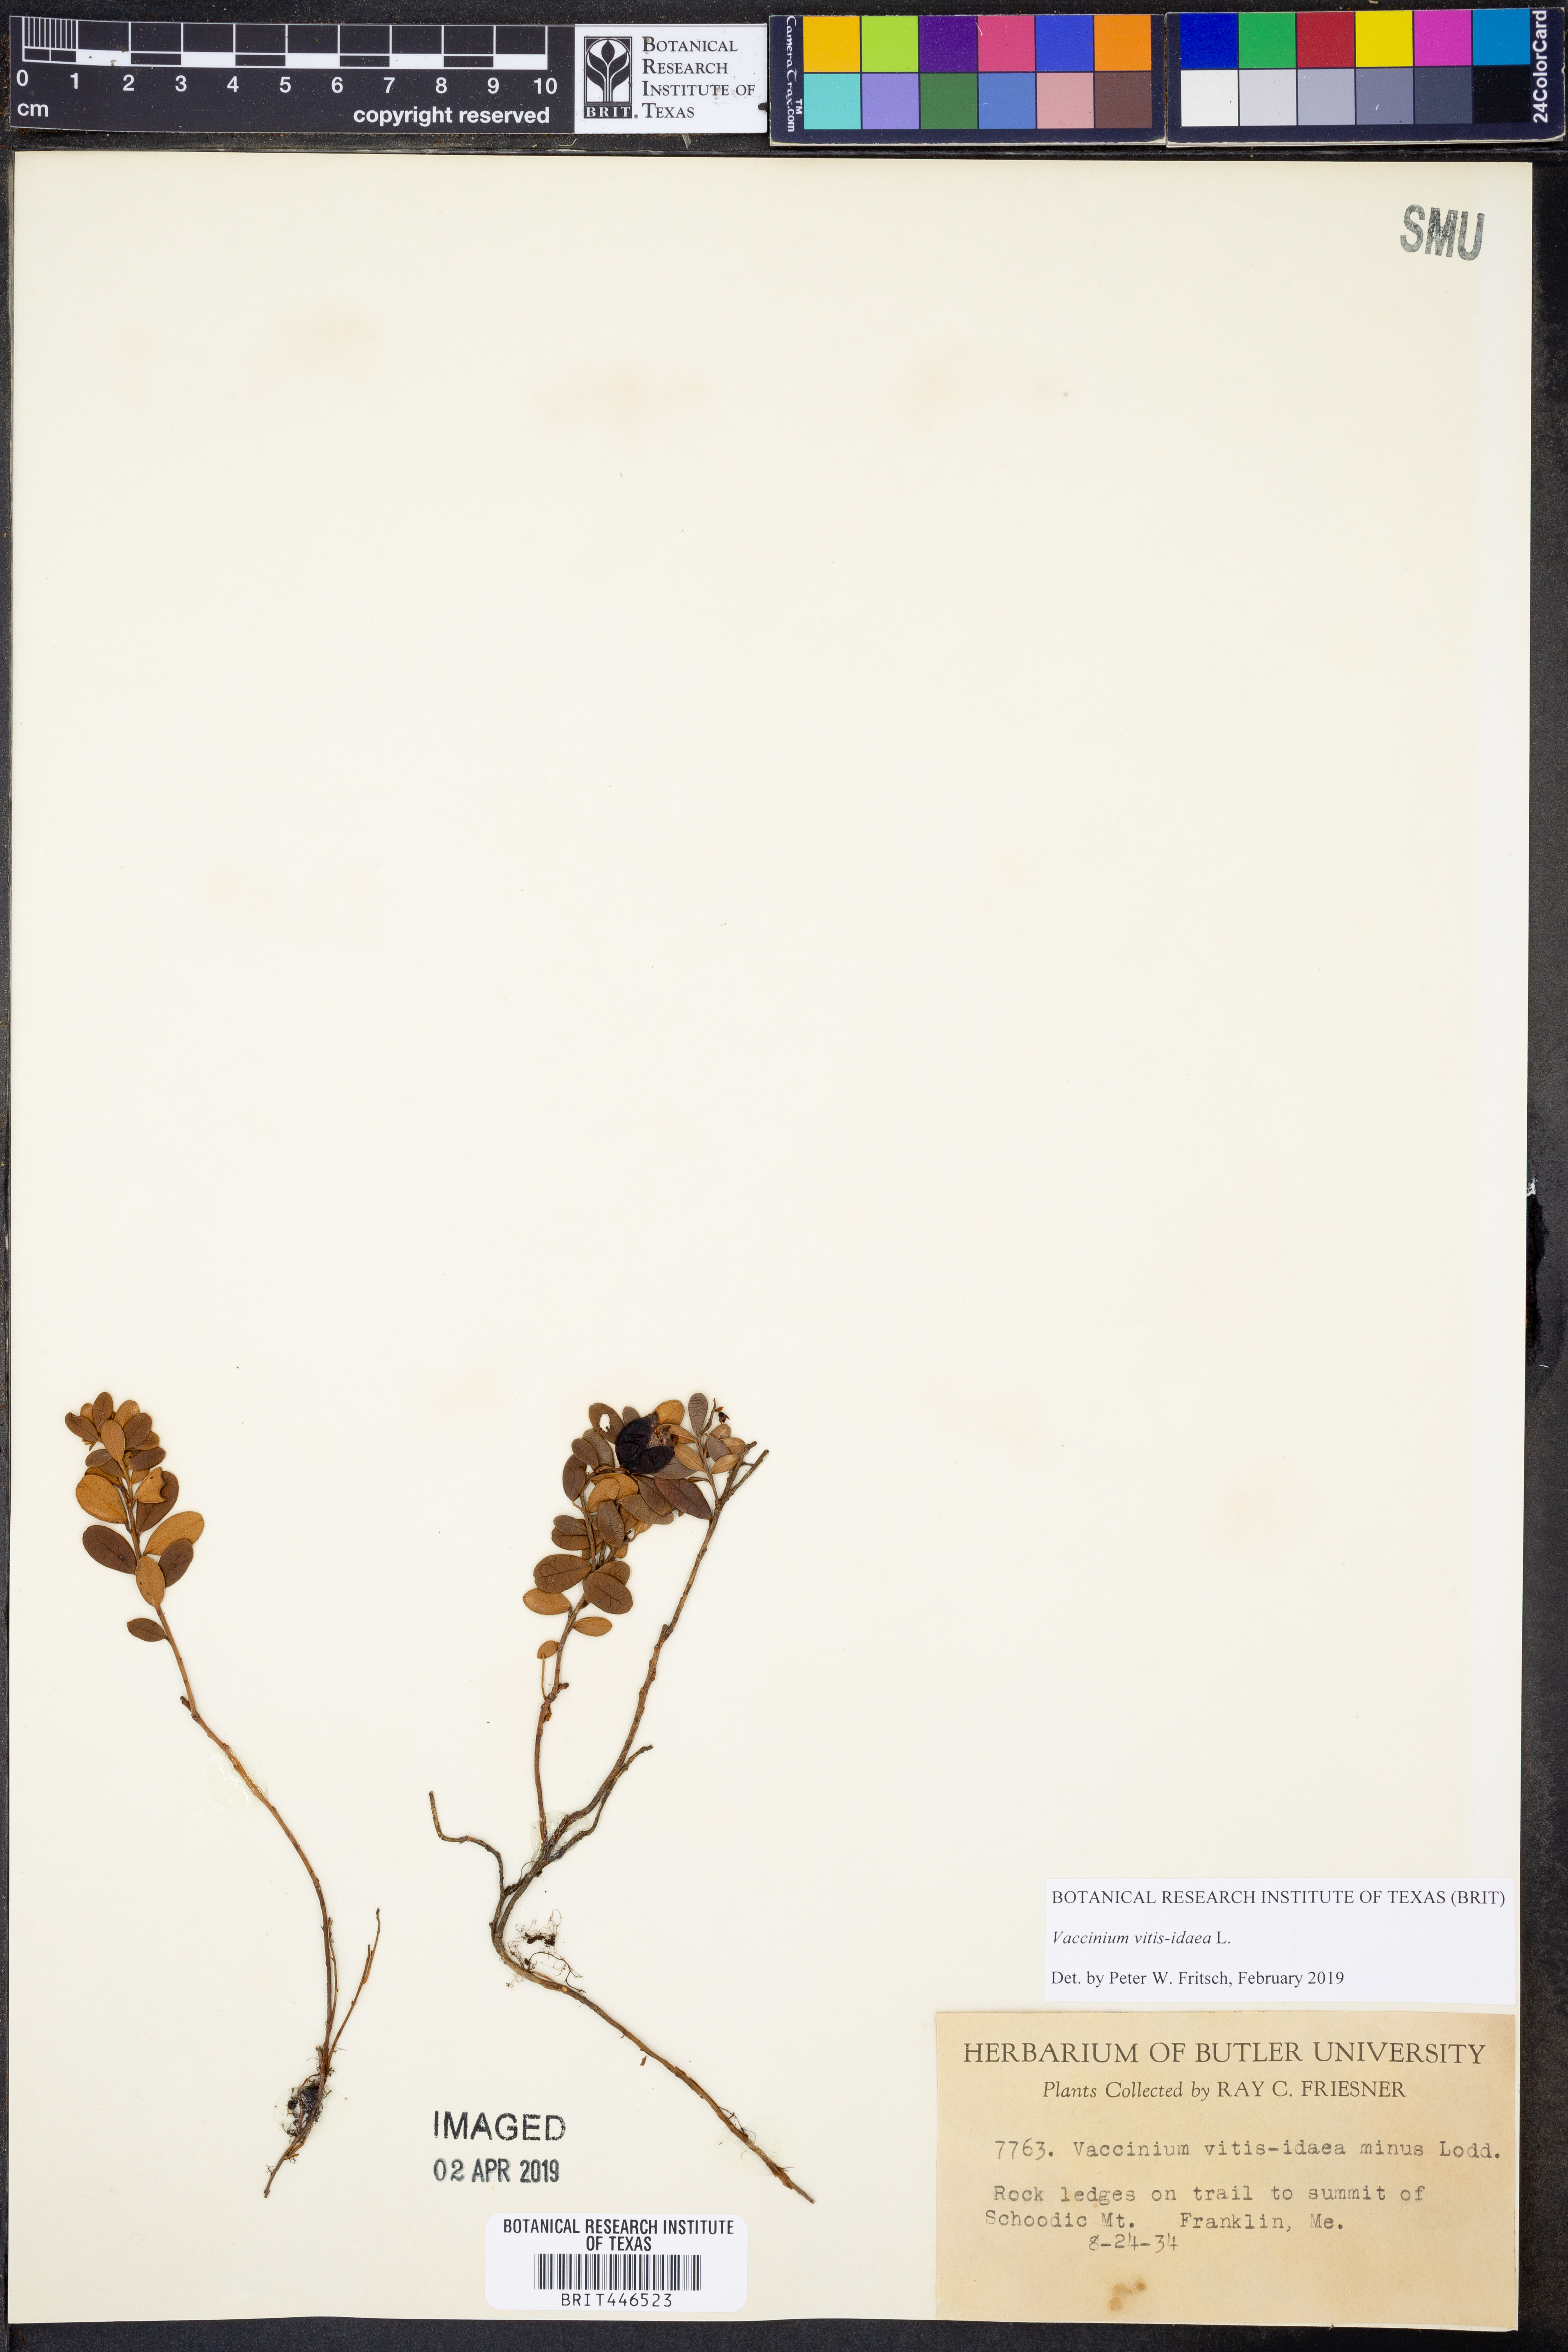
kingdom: Plantae
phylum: Tracheophyta
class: Magnoliopsida
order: Ericales
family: Ericaceae
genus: Vaccinium
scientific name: Vaccinium vitis-idaea
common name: Cowberry
